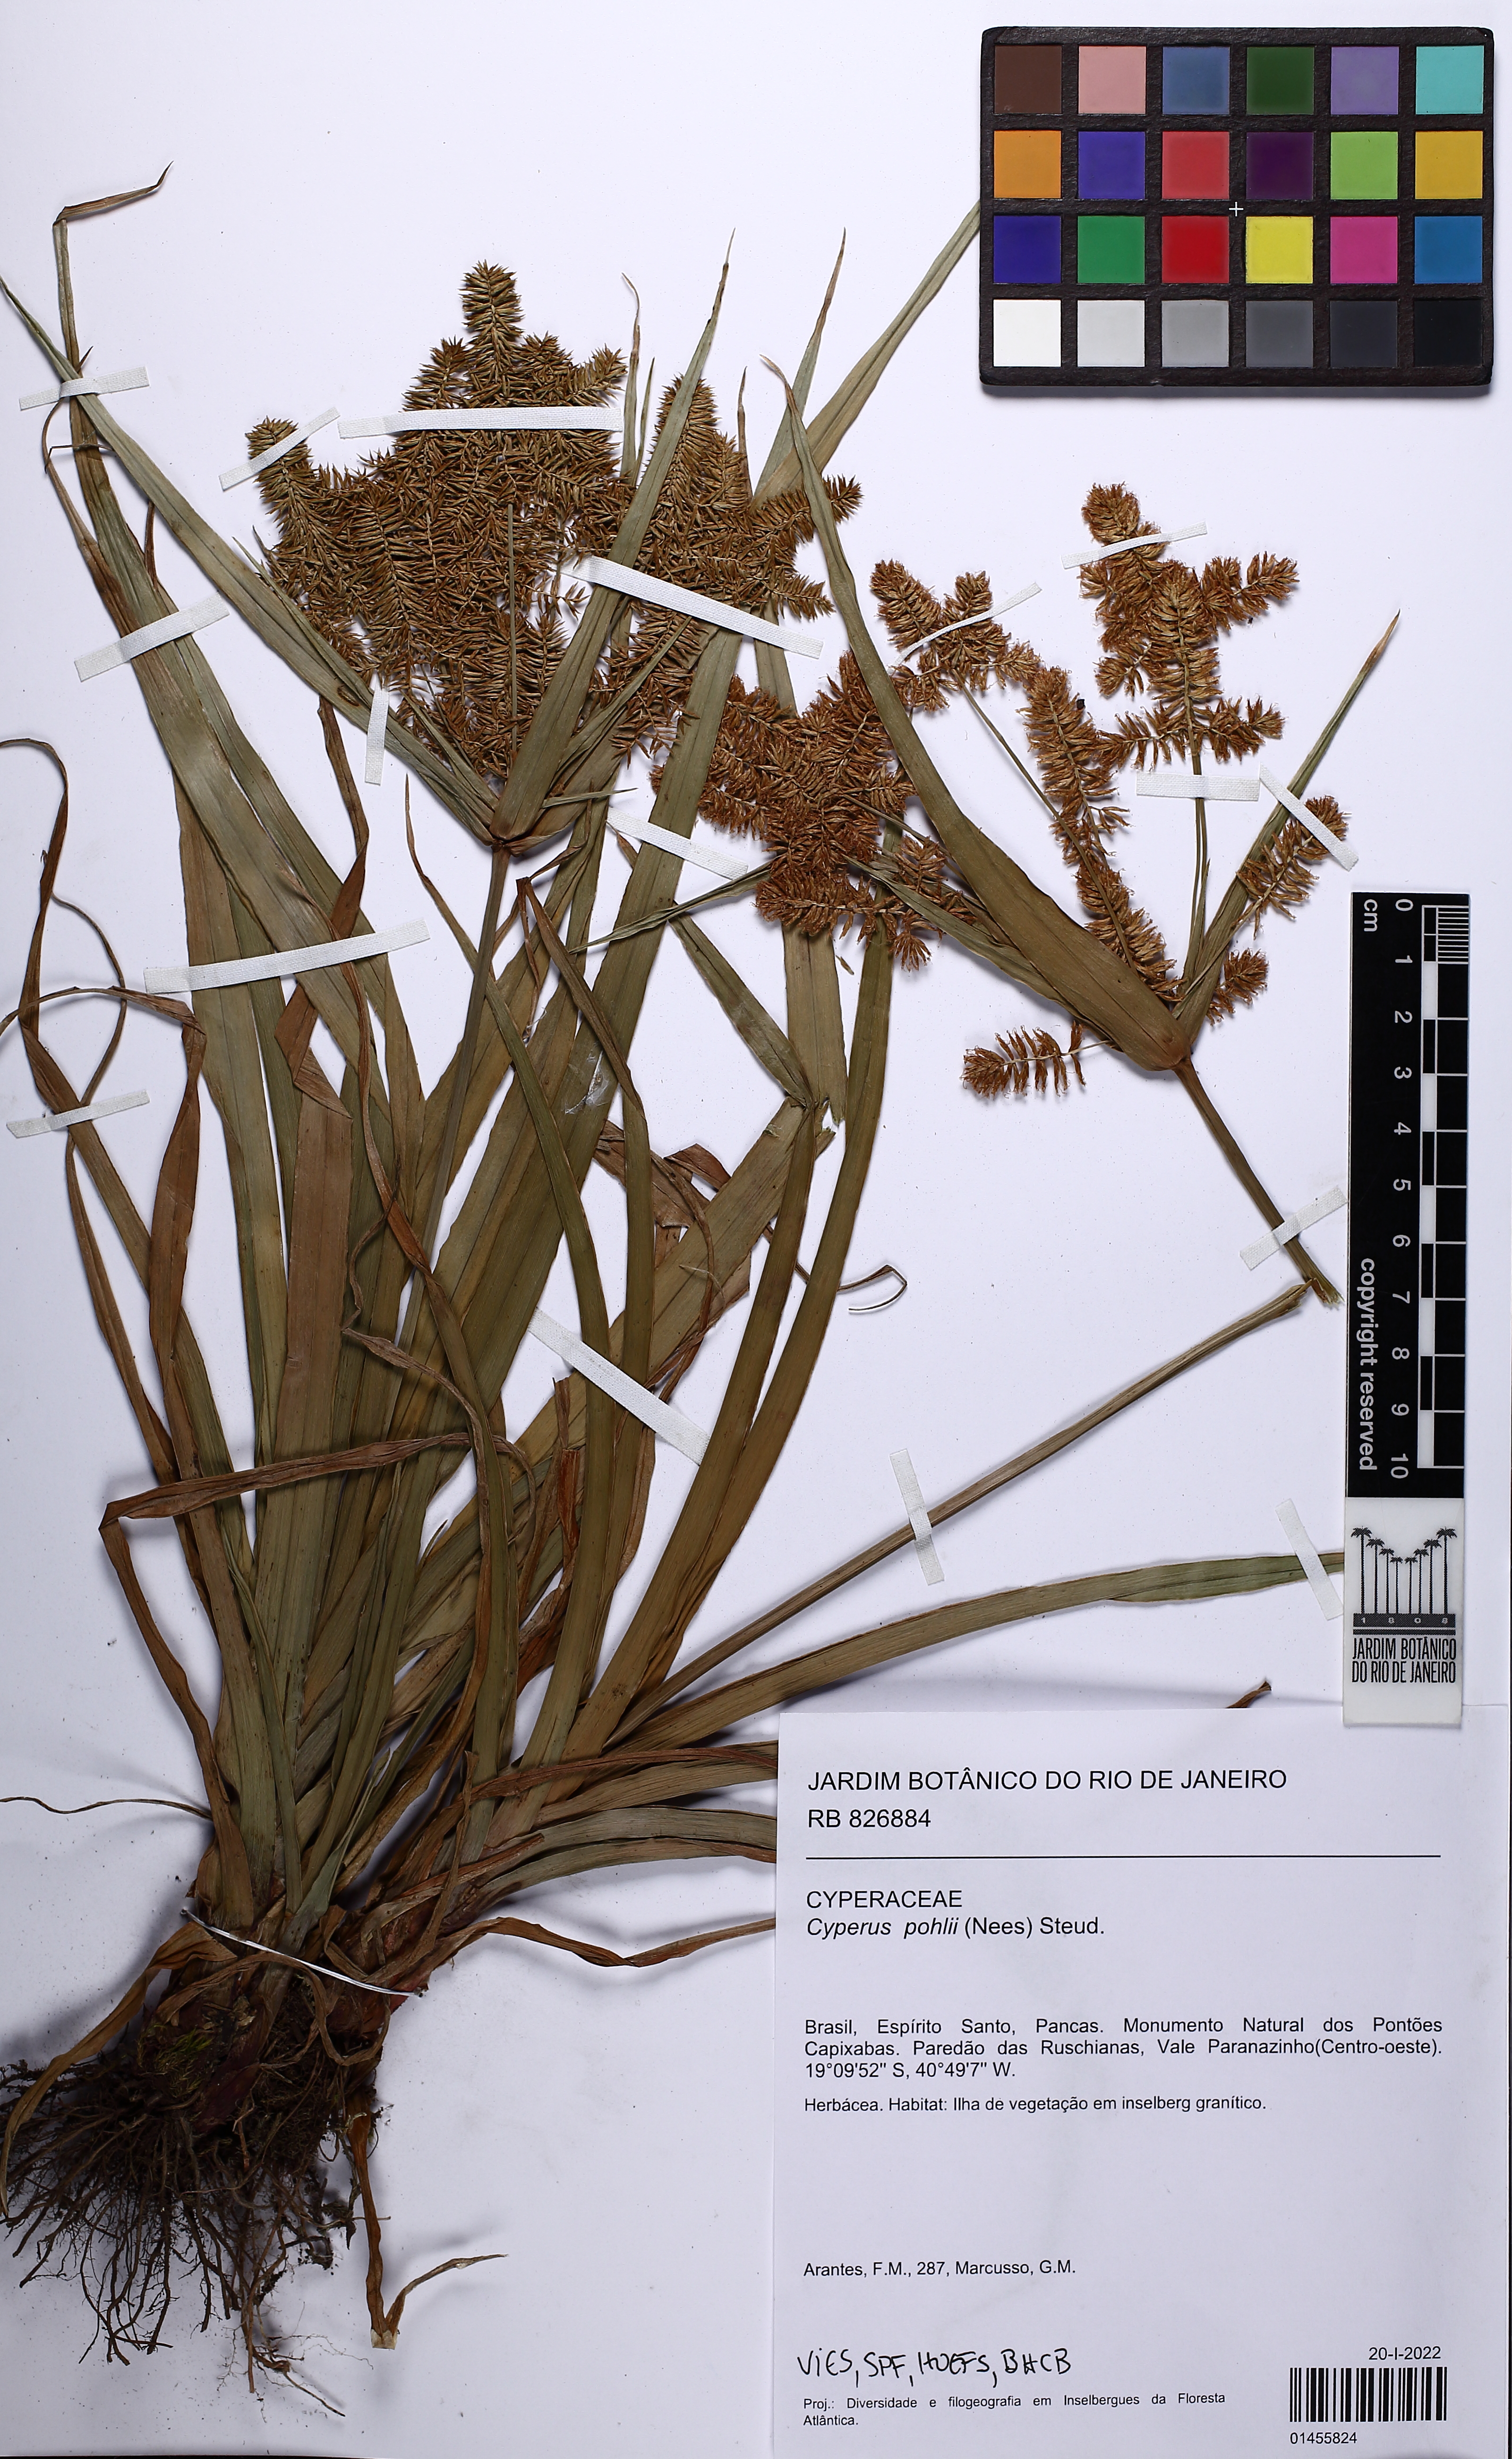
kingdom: Plantae
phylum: Tracheophyta
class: Liliopsida
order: Poales
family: Cyperaceae
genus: Cyperus
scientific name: Cyperus pohlii
